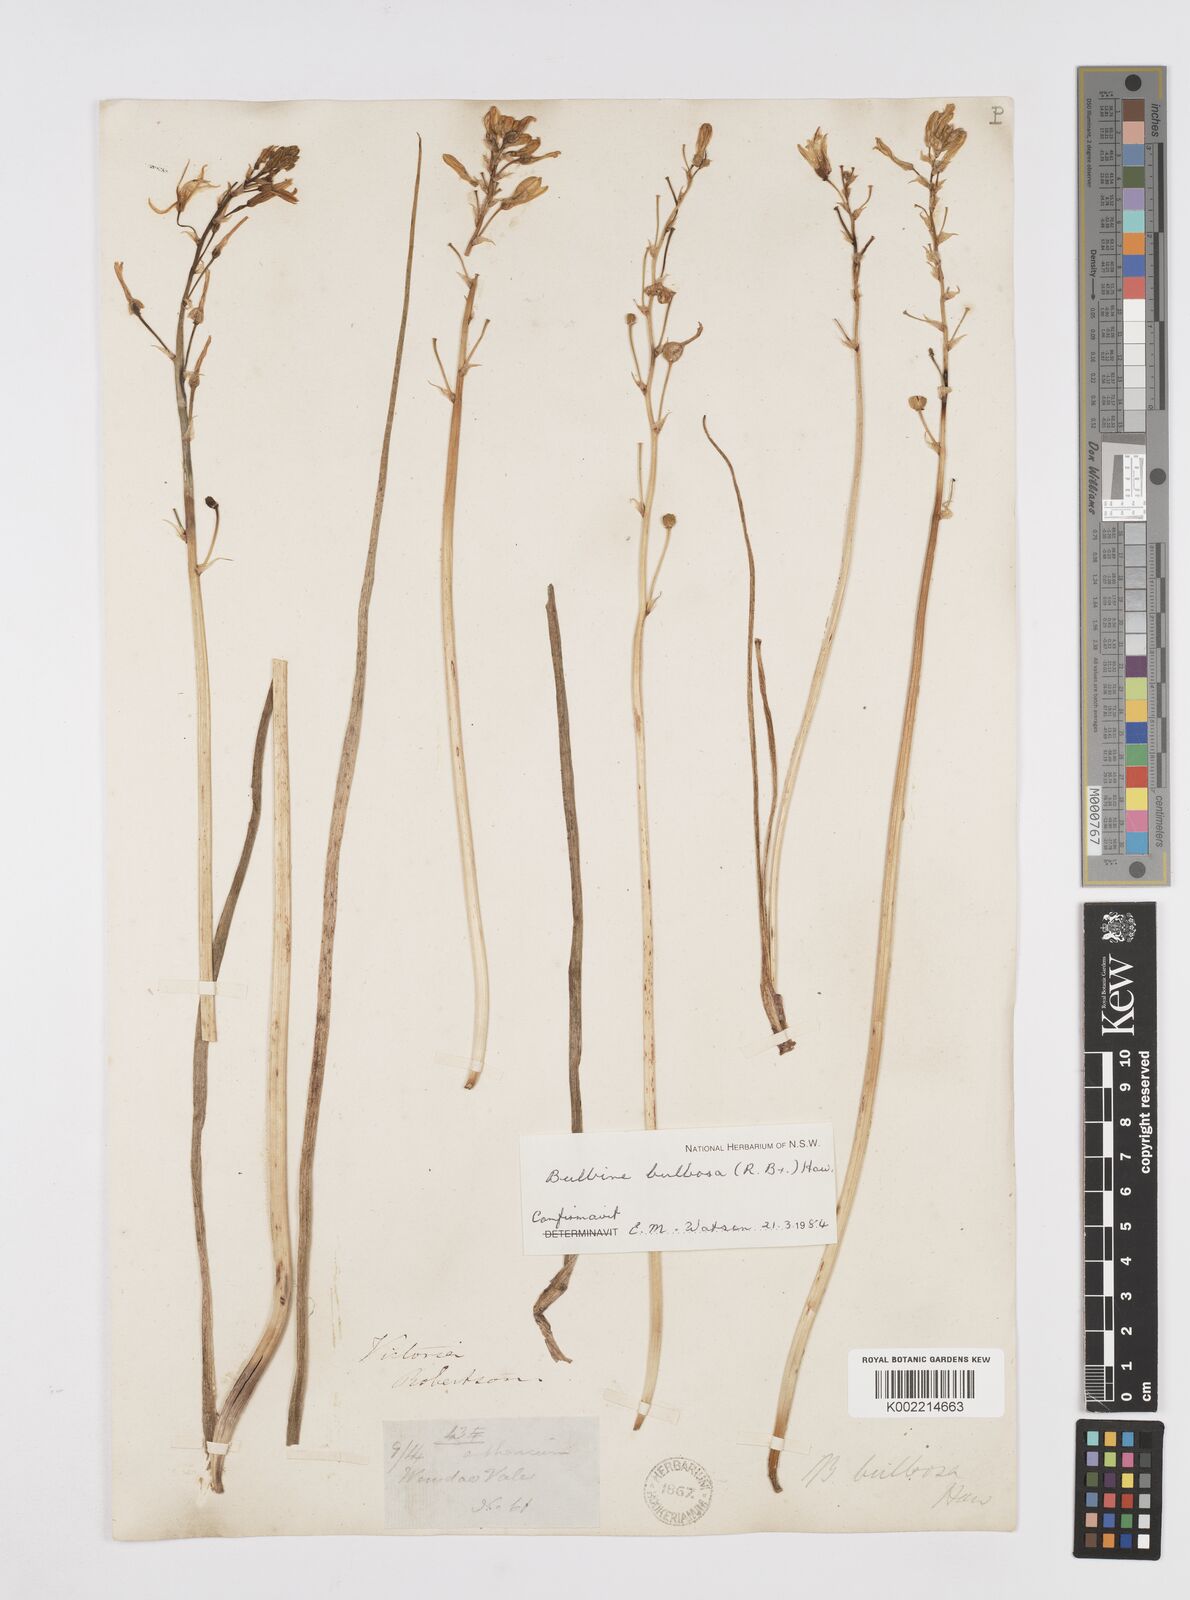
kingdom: Plantae
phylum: Tracheophyta
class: Liliopsida
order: Asparagales
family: Asphodelaceae
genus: Bulbine
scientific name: Bulbine bulbosa
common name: Golden-lily
